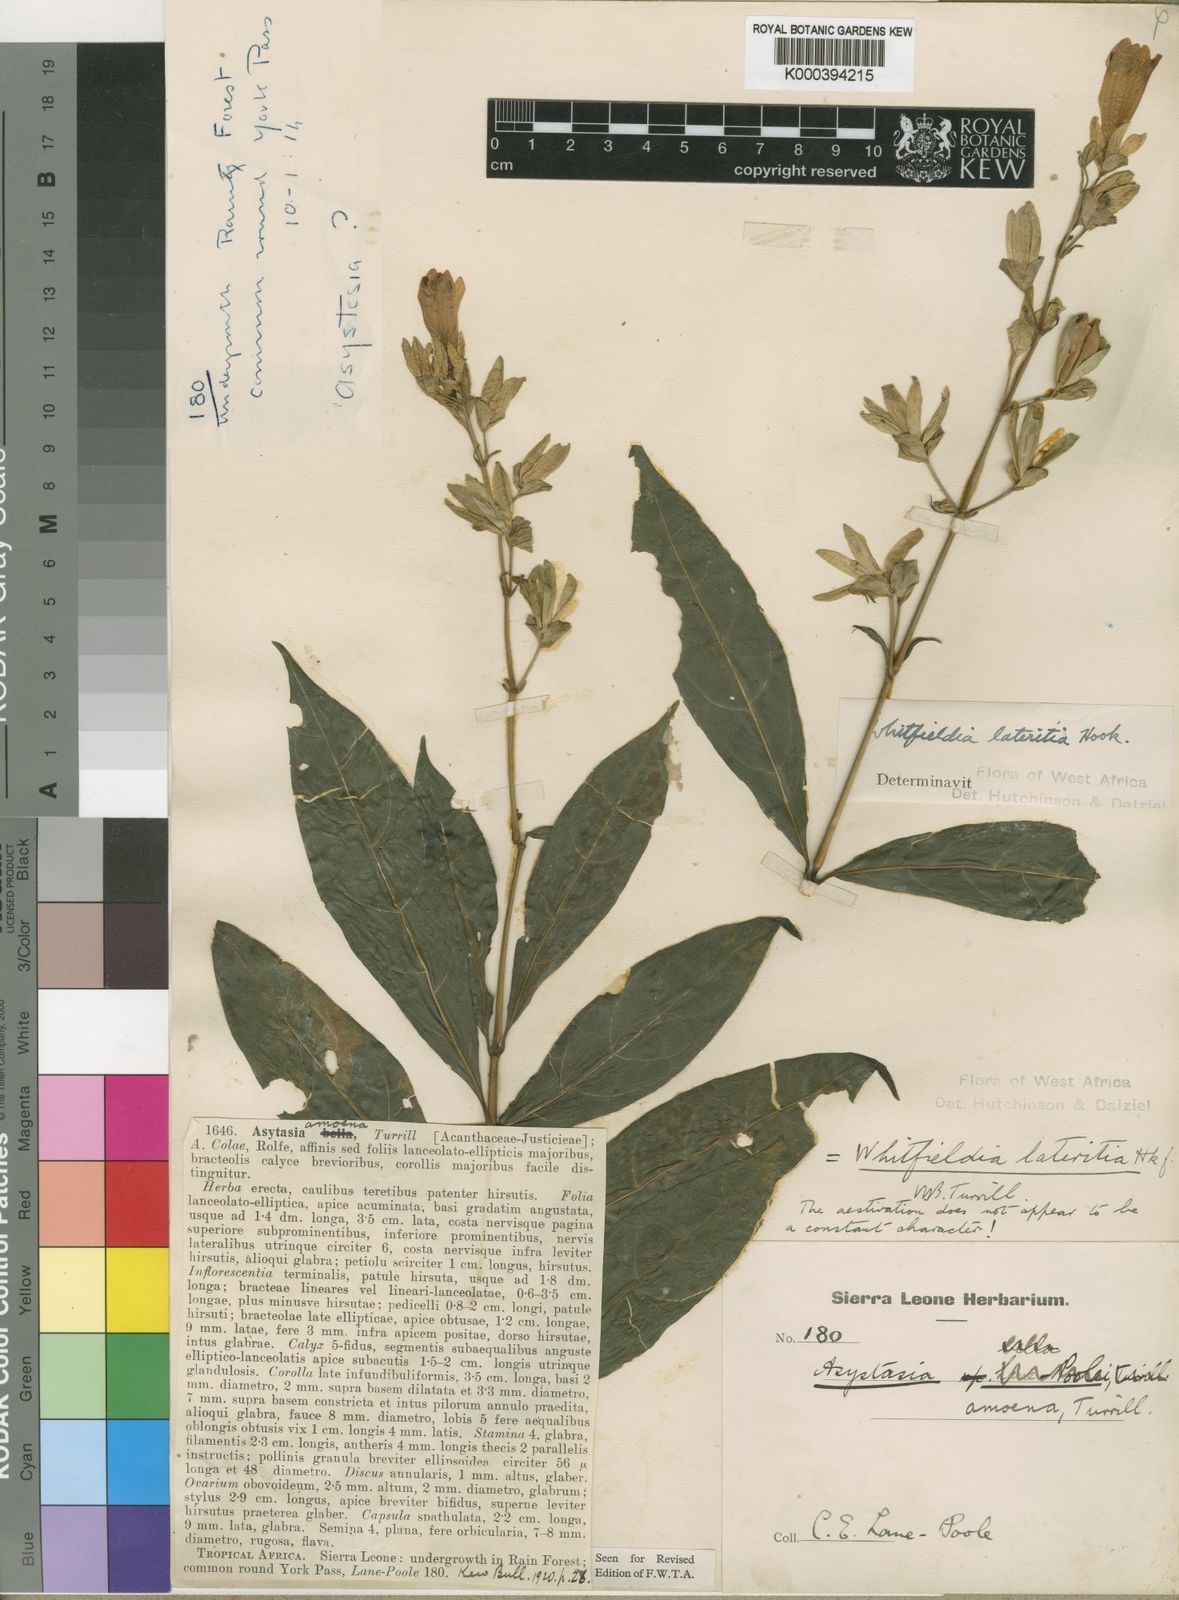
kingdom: Plantae
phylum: Tracheophyta
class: Magnoliopsida
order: Lamiales
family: Acanthaceae
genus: Whitfieldia
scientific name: Whitfieldia lateritia
